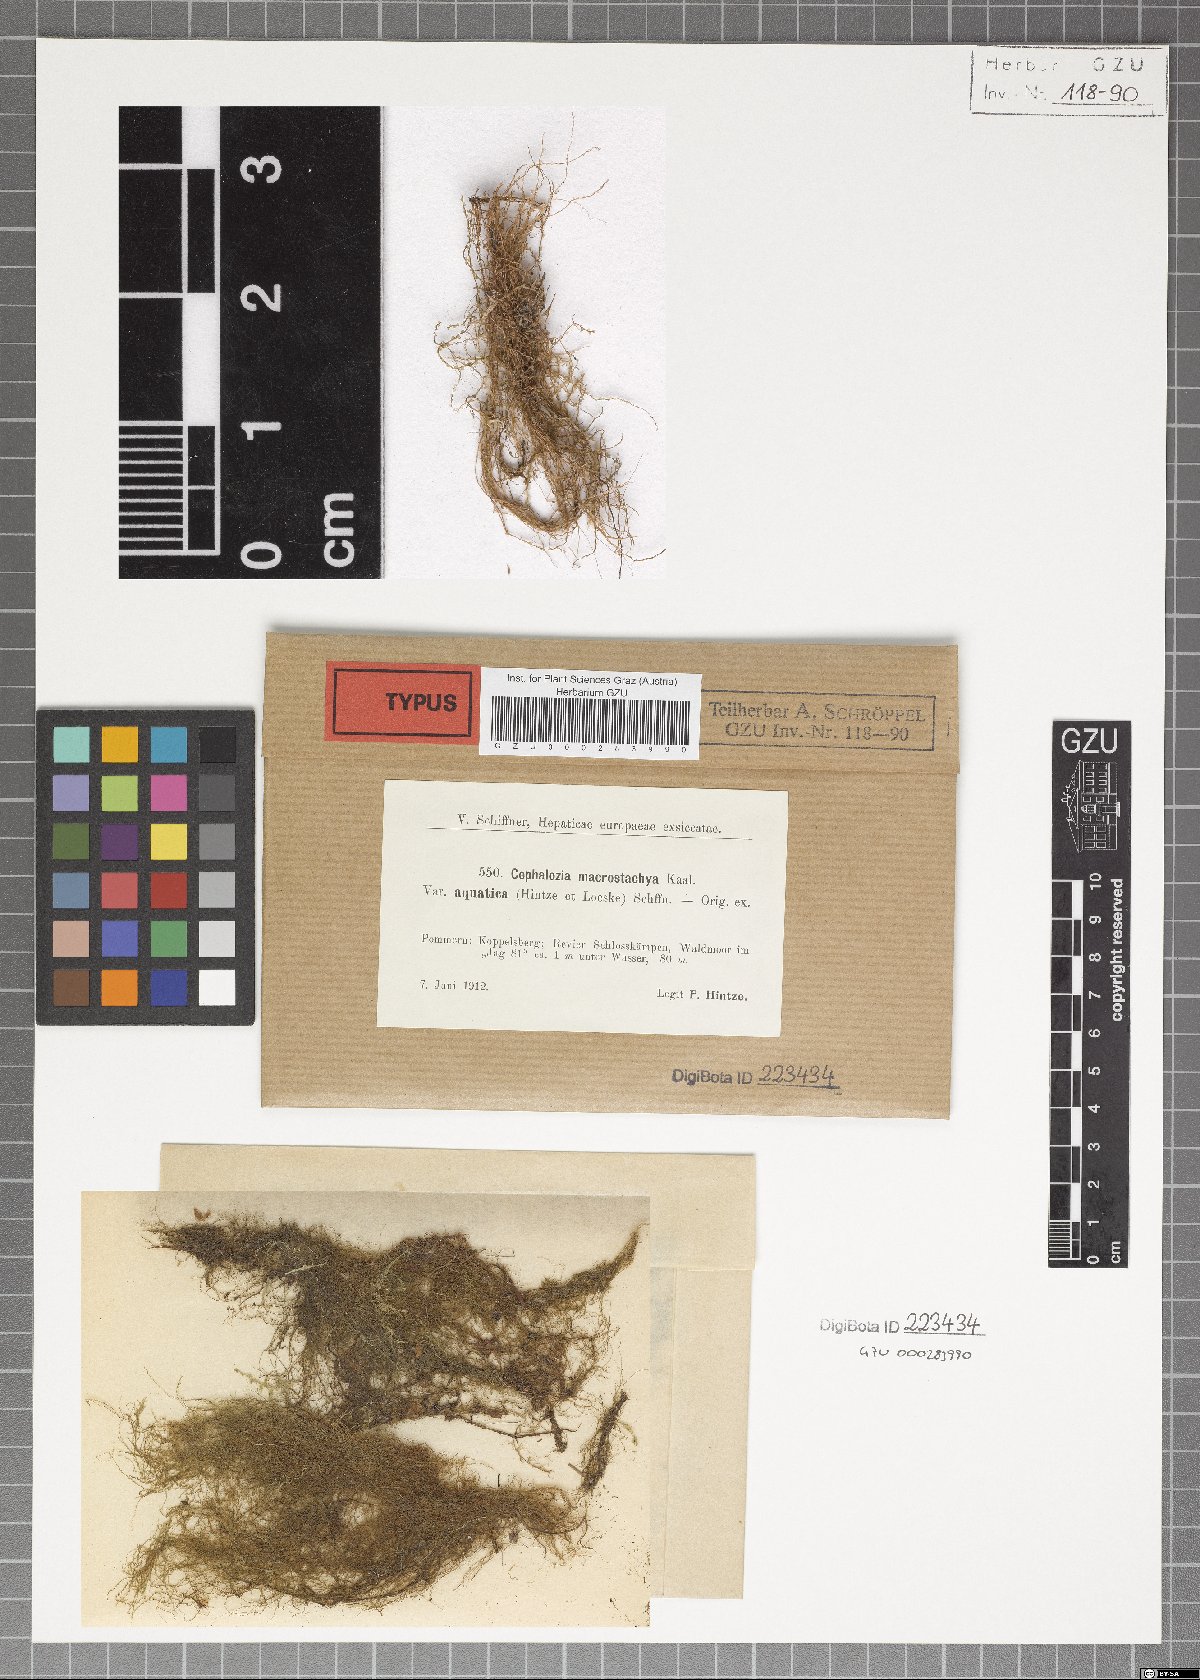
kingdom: Plantae
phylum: Marchantiophyta
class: Jungermanniopsida
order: Jungermanniales
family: Cephaloziaceae
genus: Fuscocephaloziopsis
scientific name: Fuscocephaloziopsis macrostachya
